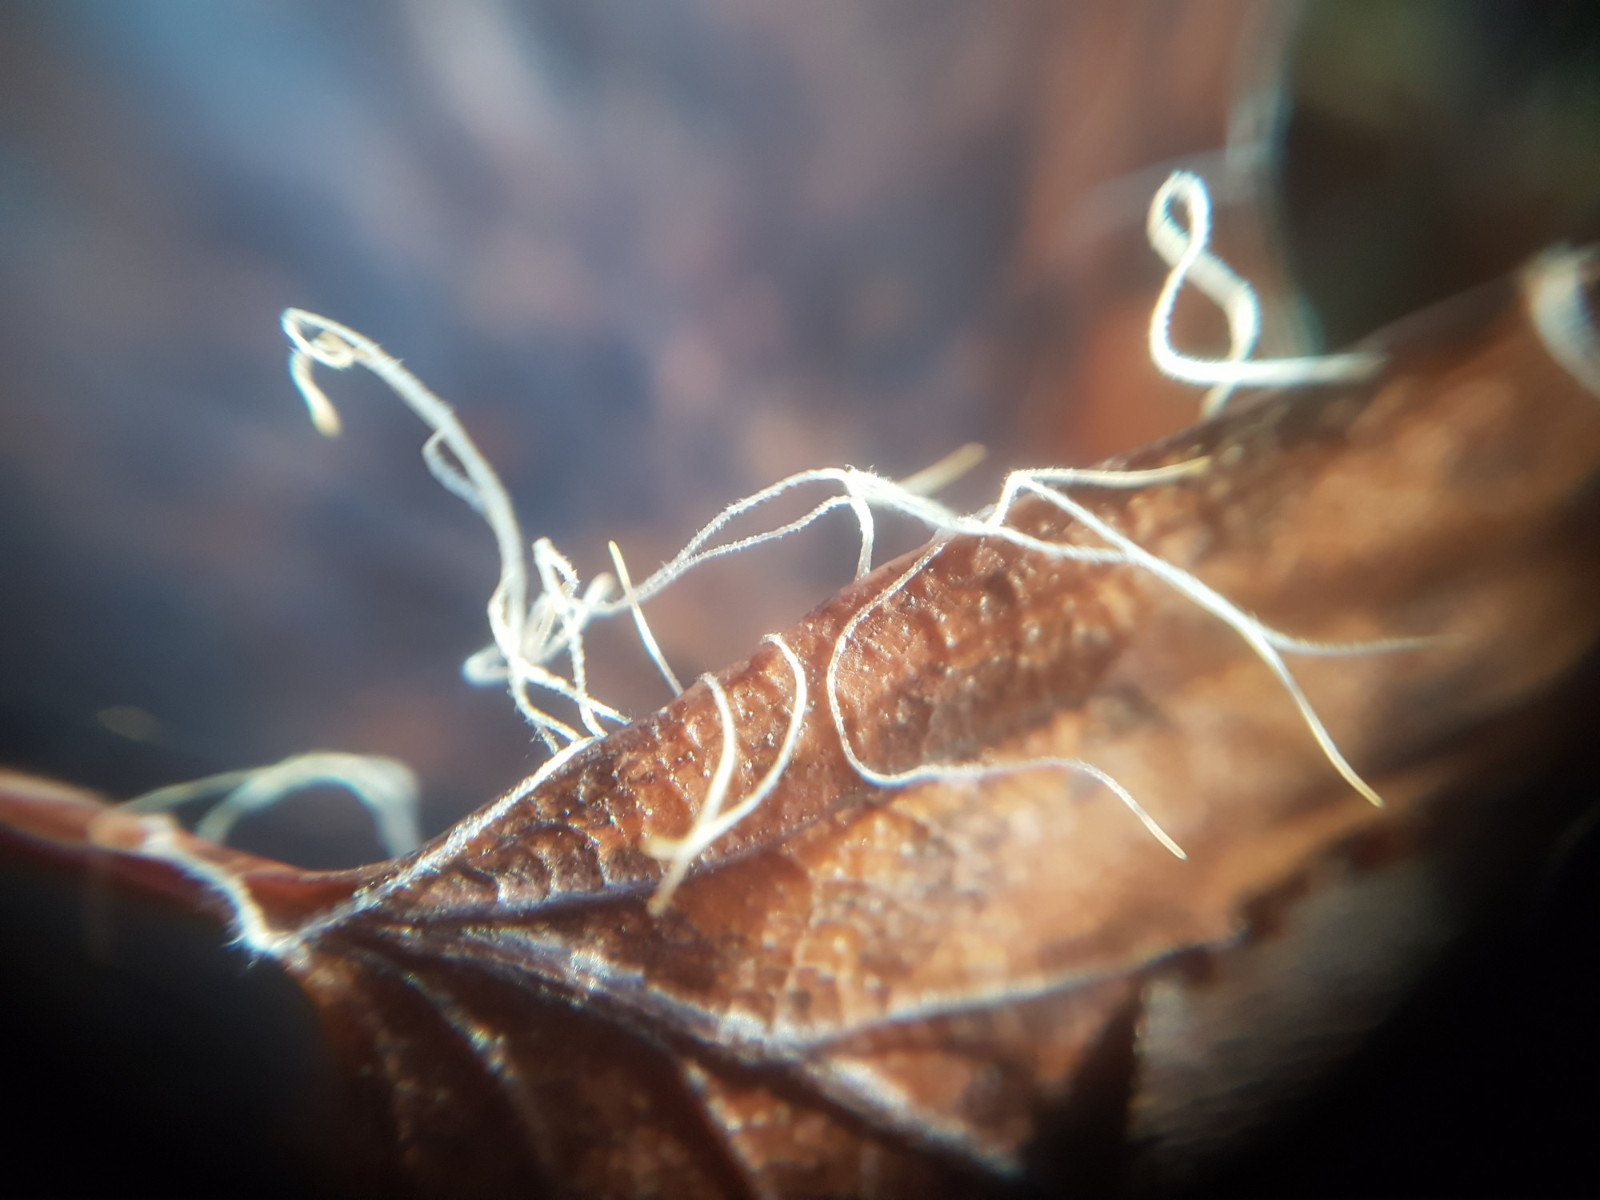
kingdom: Fungi
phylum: Basidiomycota
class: Agaricomycetes
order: Agaricales
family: Typhulaceae
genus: Typhula
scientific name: Typhula juncea
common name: trådagtig rørkølle
